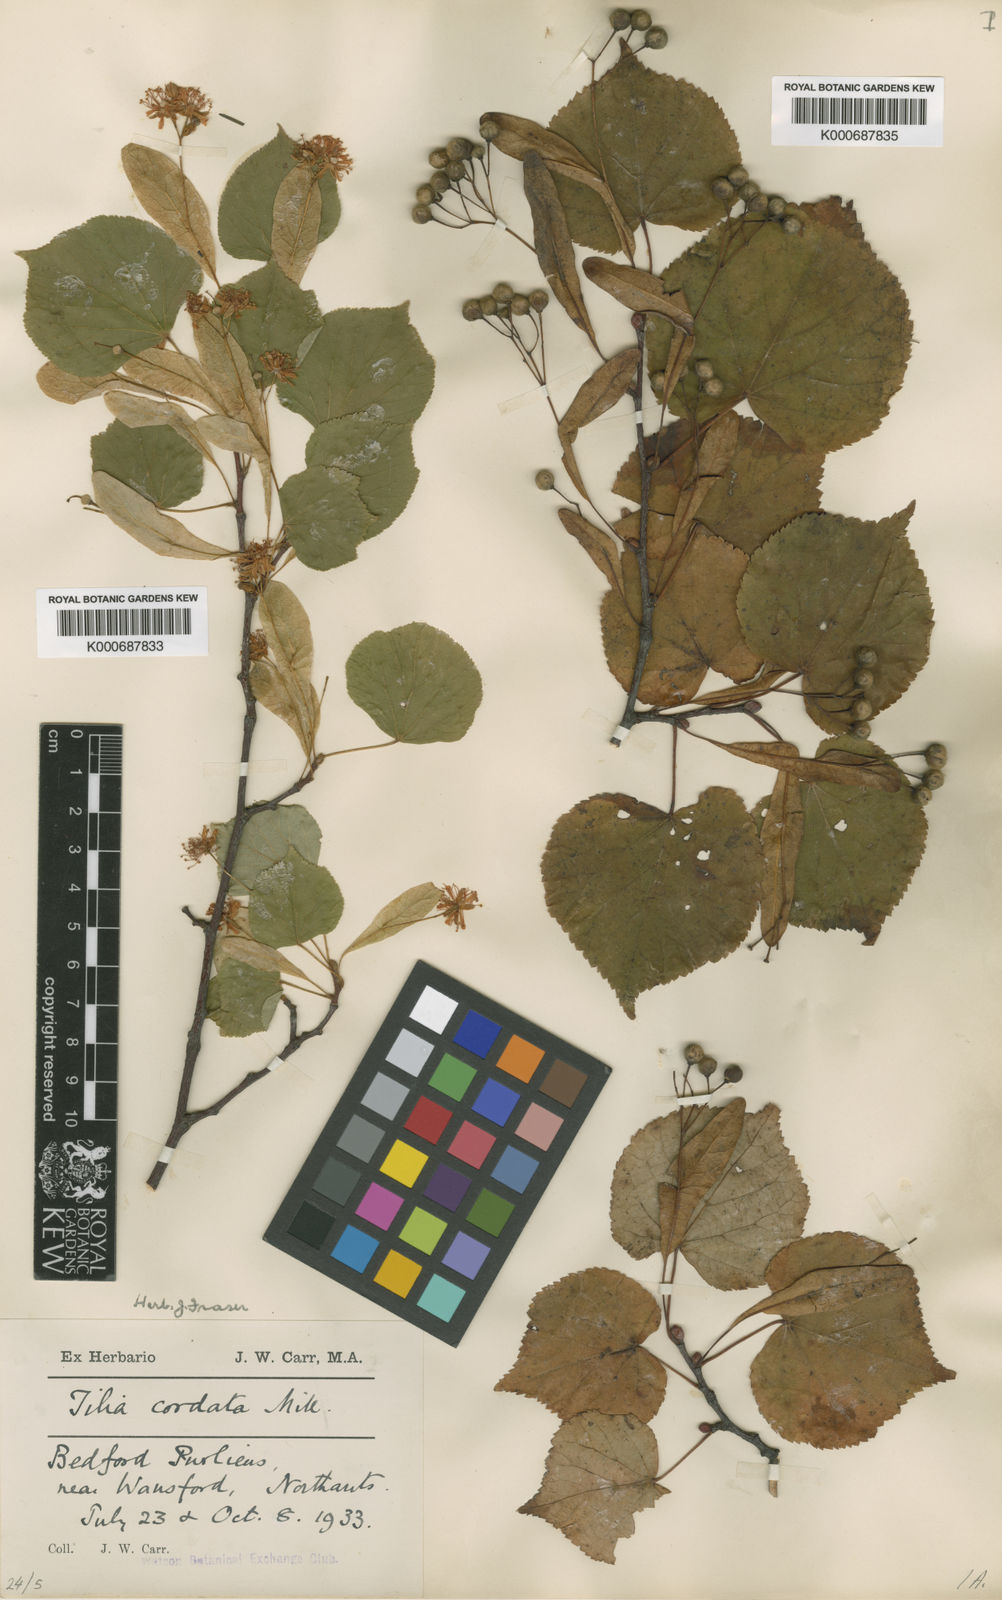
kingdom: Plantae
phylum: Tracheophyta
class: Magnoliopsida
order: Malvales
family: Malvaceae
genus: Tilia
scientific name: Tilia cordata
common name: Small-leaved lime
